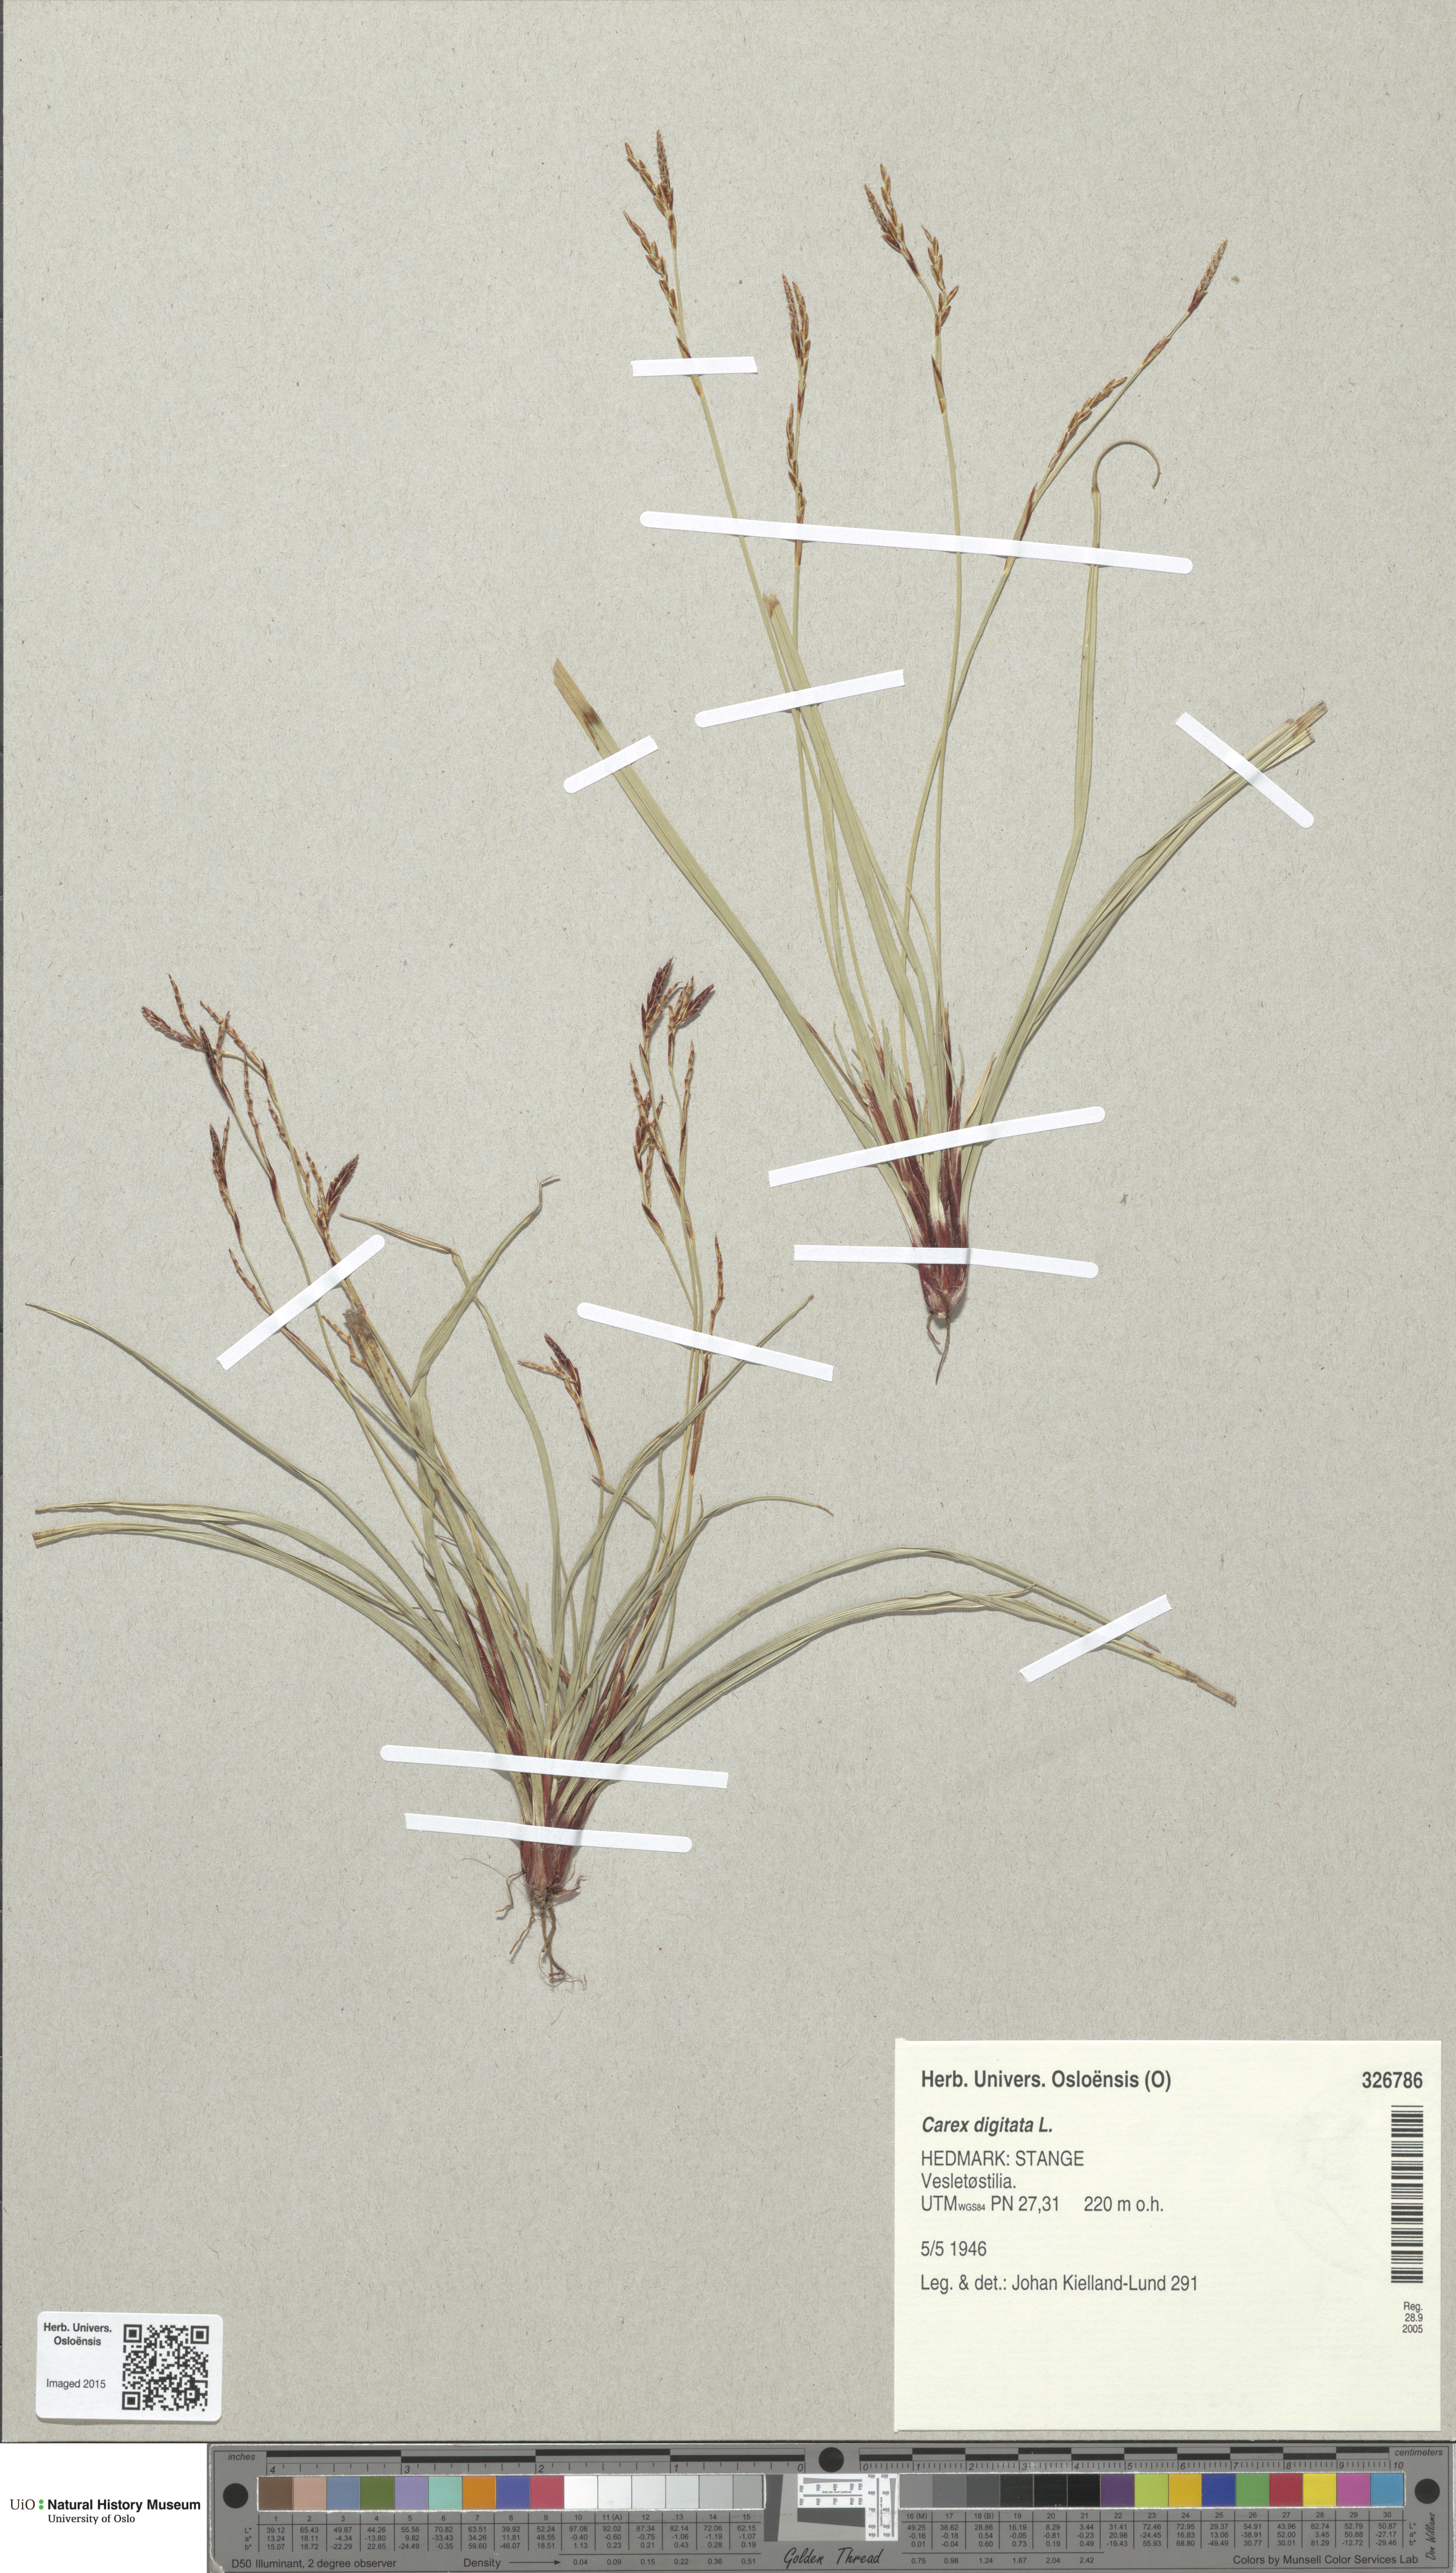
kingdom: Plantae
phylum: Tracheophyta
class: Liliopsida
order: Poales
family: Cyperaceae
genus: Carex
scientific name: Carex digitata
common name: Fingered sedge
